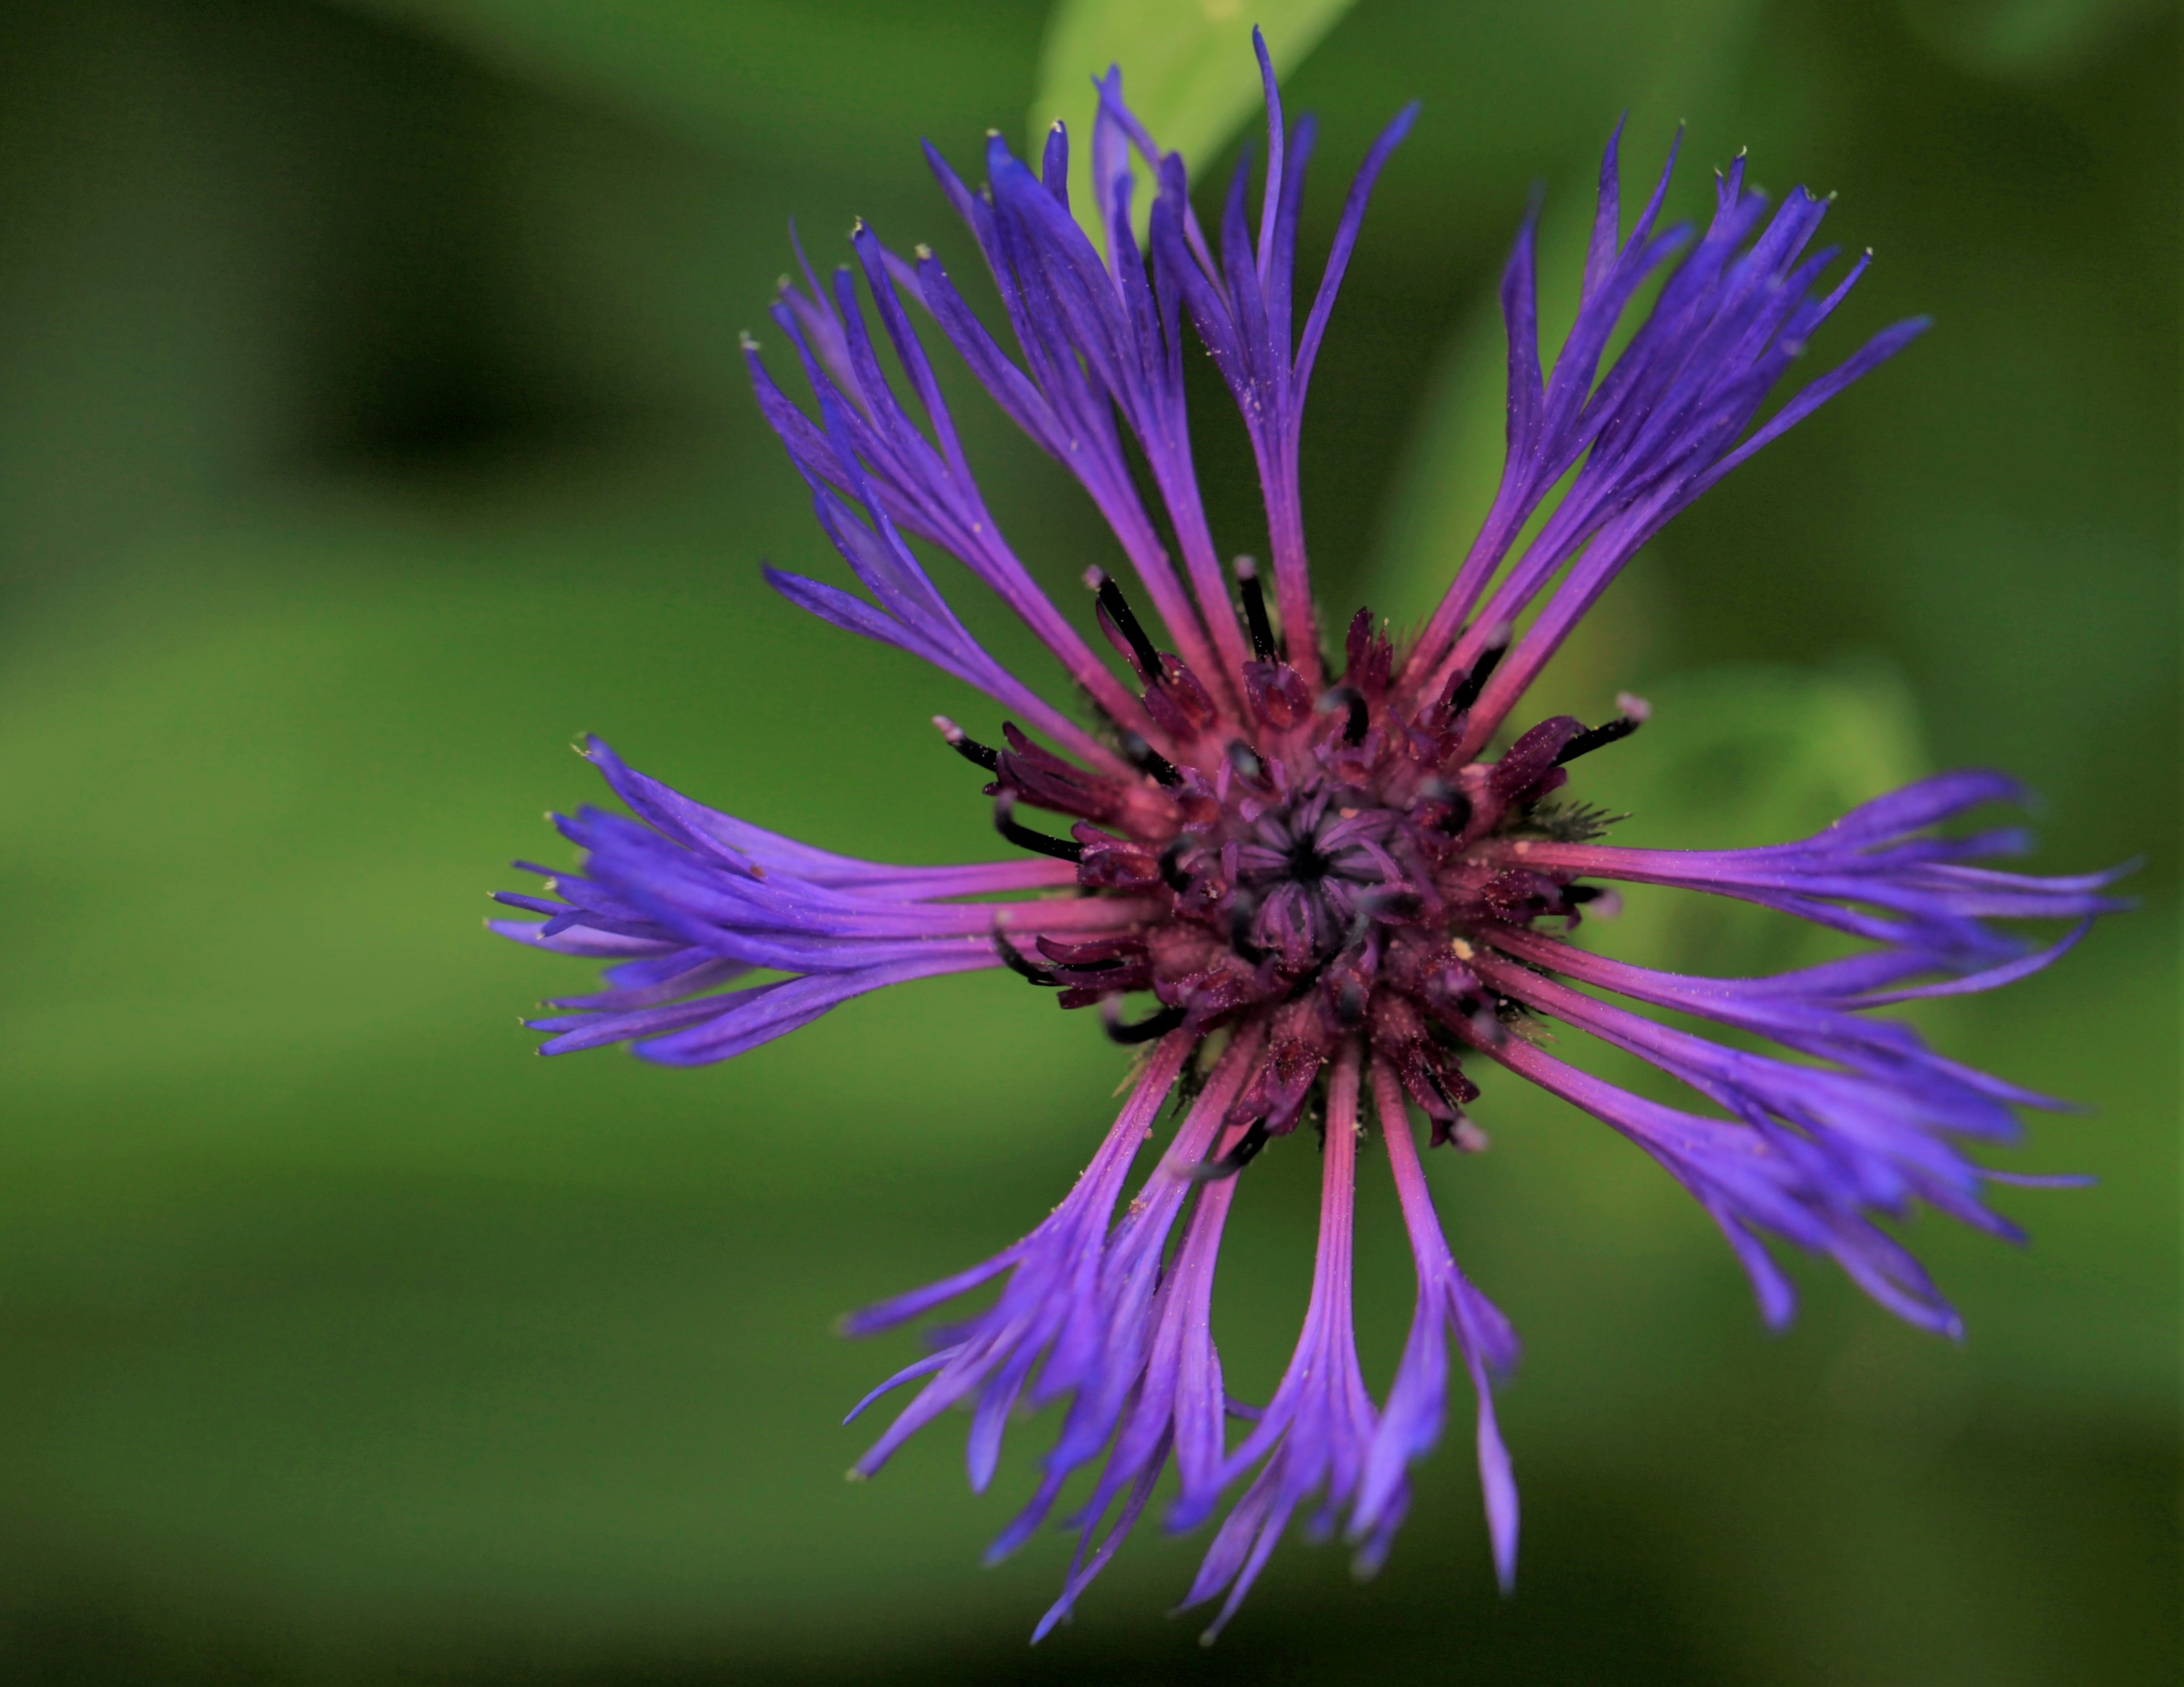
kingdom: Plantae
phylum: Tracheophyta
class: Magnoliopsida
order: Asterales
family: Asteraceae
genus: Centaurea
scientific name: Centaurea montana
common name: Bjerg-knopurt
